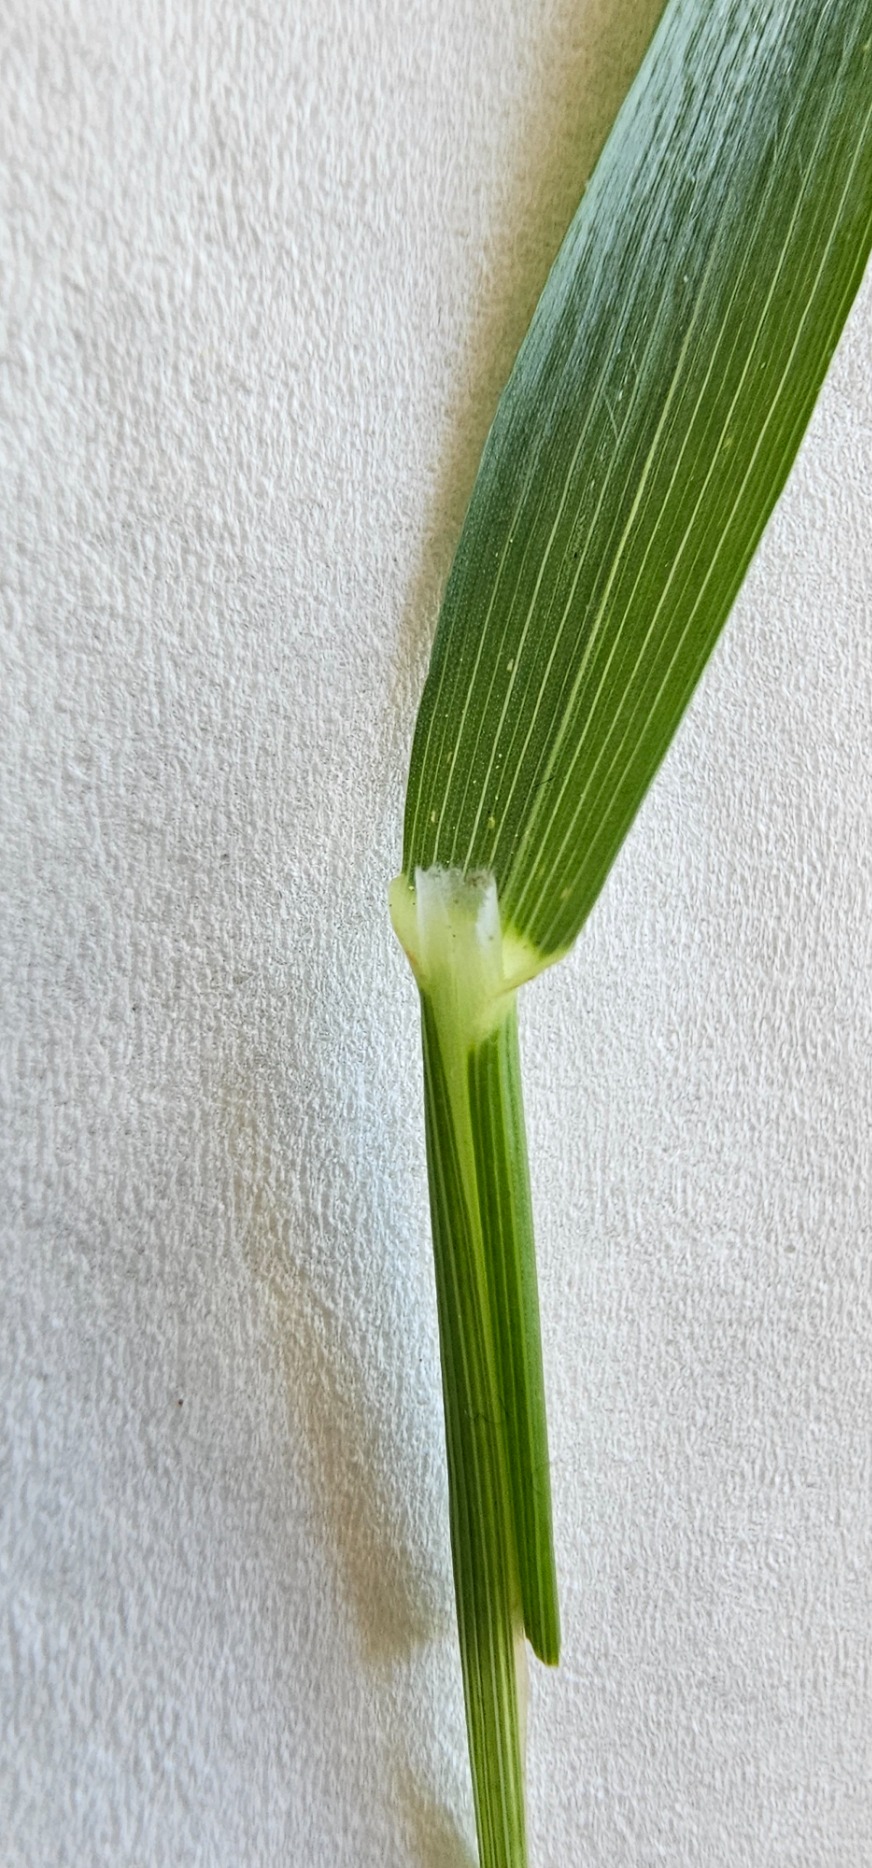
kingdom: Plantae
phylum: Tracheophyta
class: Liliopsida
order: Poales
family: Poaceae
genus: Arrhenatherum
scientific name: Arrhenatherum elatius
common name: Draphavre
